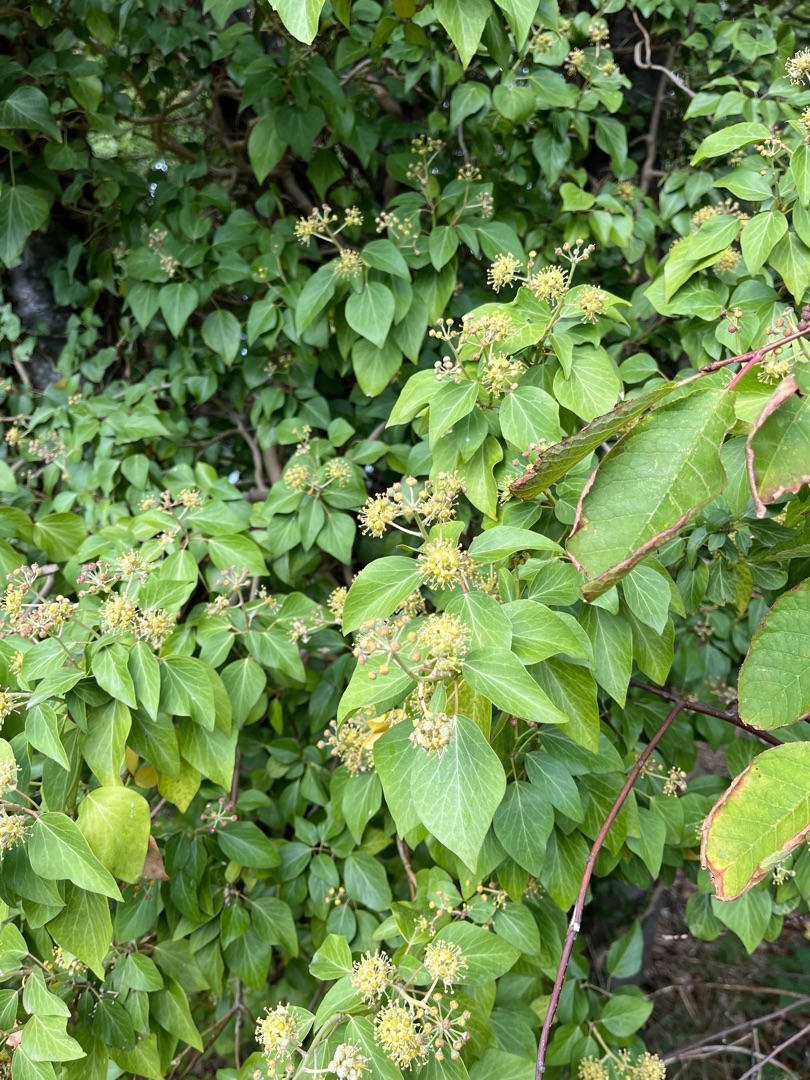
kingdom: Plantae
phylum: Tracheophyta
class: Magnoliopsida
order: Apiales
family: Araliaceae
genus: Hedera
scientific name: Hedera helix
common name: Vedbend
